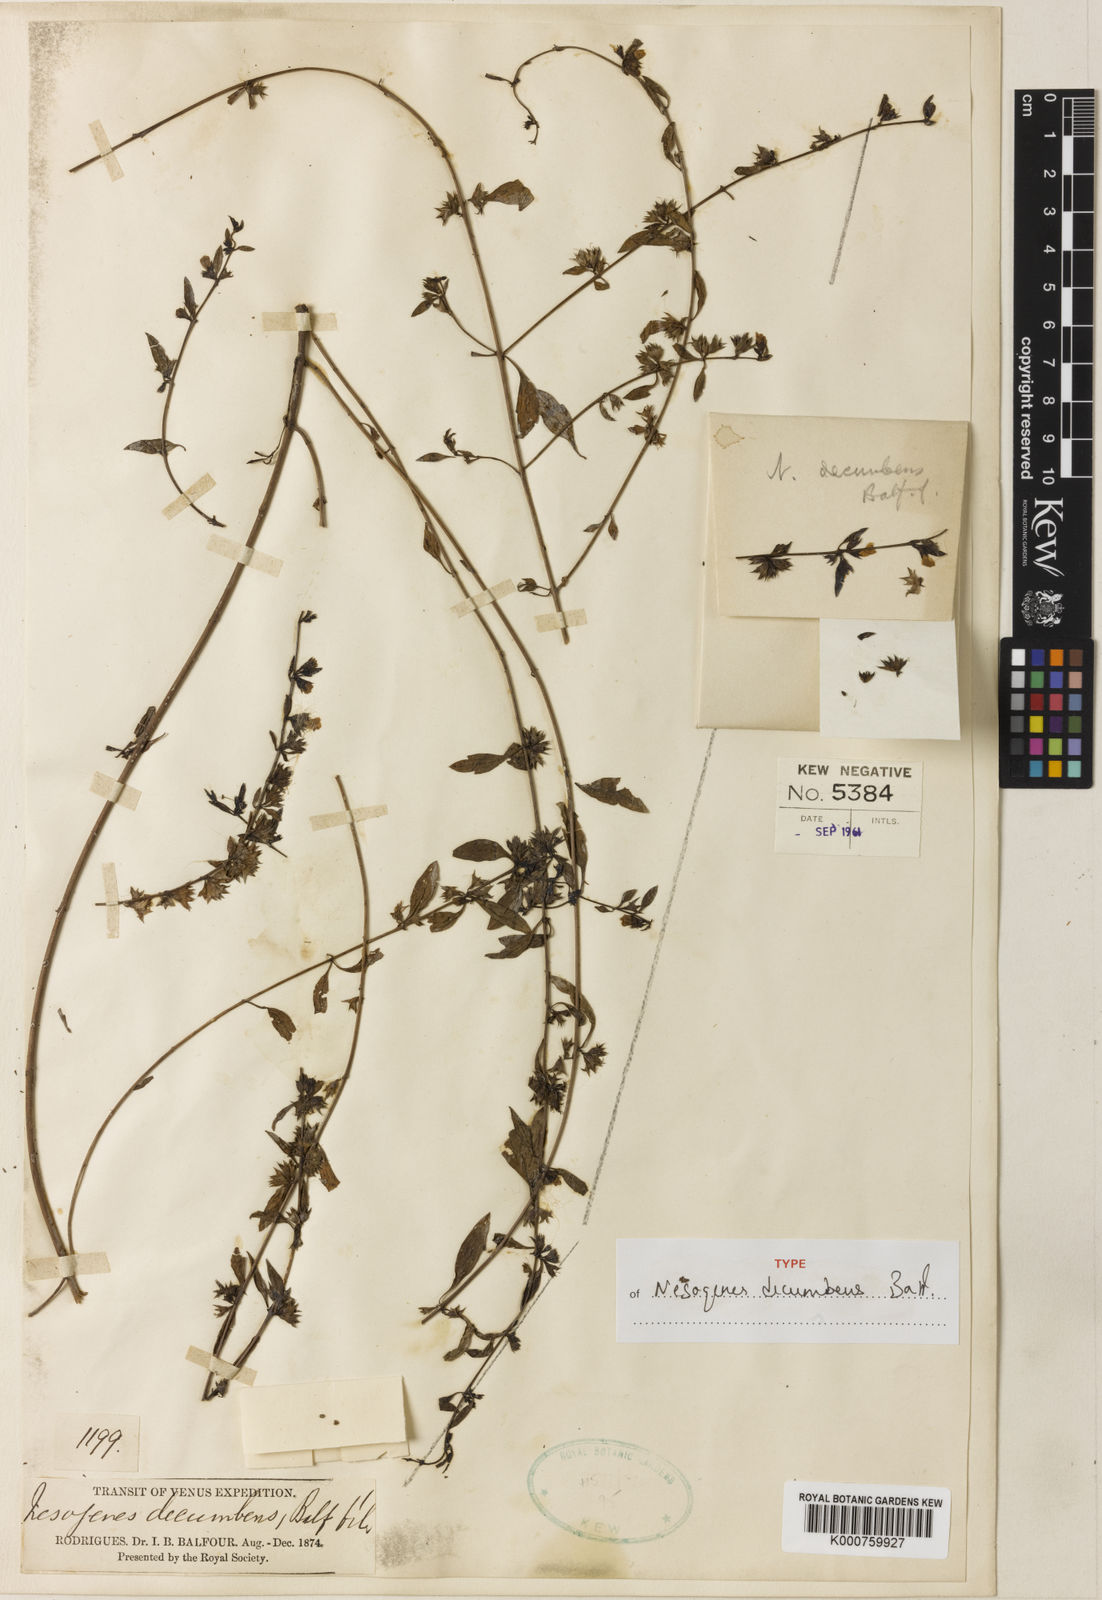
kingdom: Plantae
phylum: Tracheophyta
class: Magnoliopsida
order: Lamiales
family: Orobanchaceae
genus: Nesogenes
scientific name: Nesogenes decumbens
